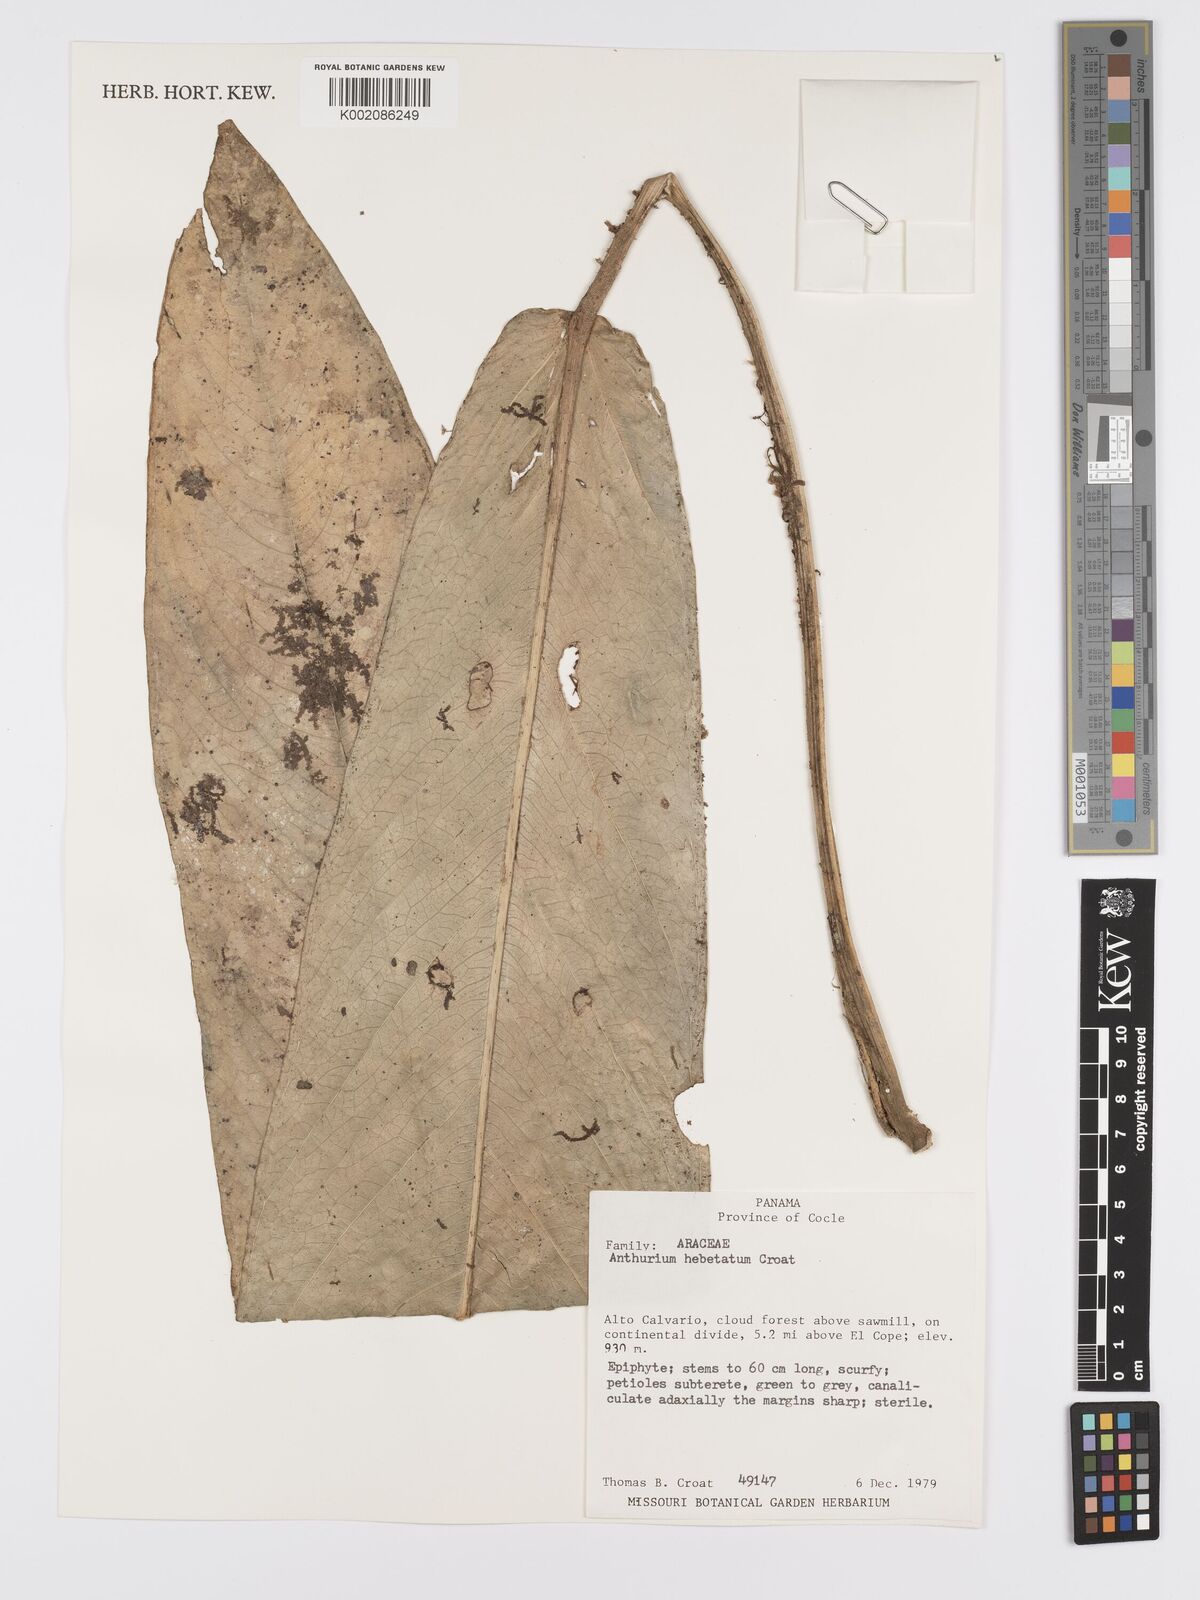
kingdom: Plantae
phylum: Tracheophyta
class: Liliopsida
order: Alismatales
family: Araceae
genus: Anthurium
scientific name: Anthurium hebetatum
